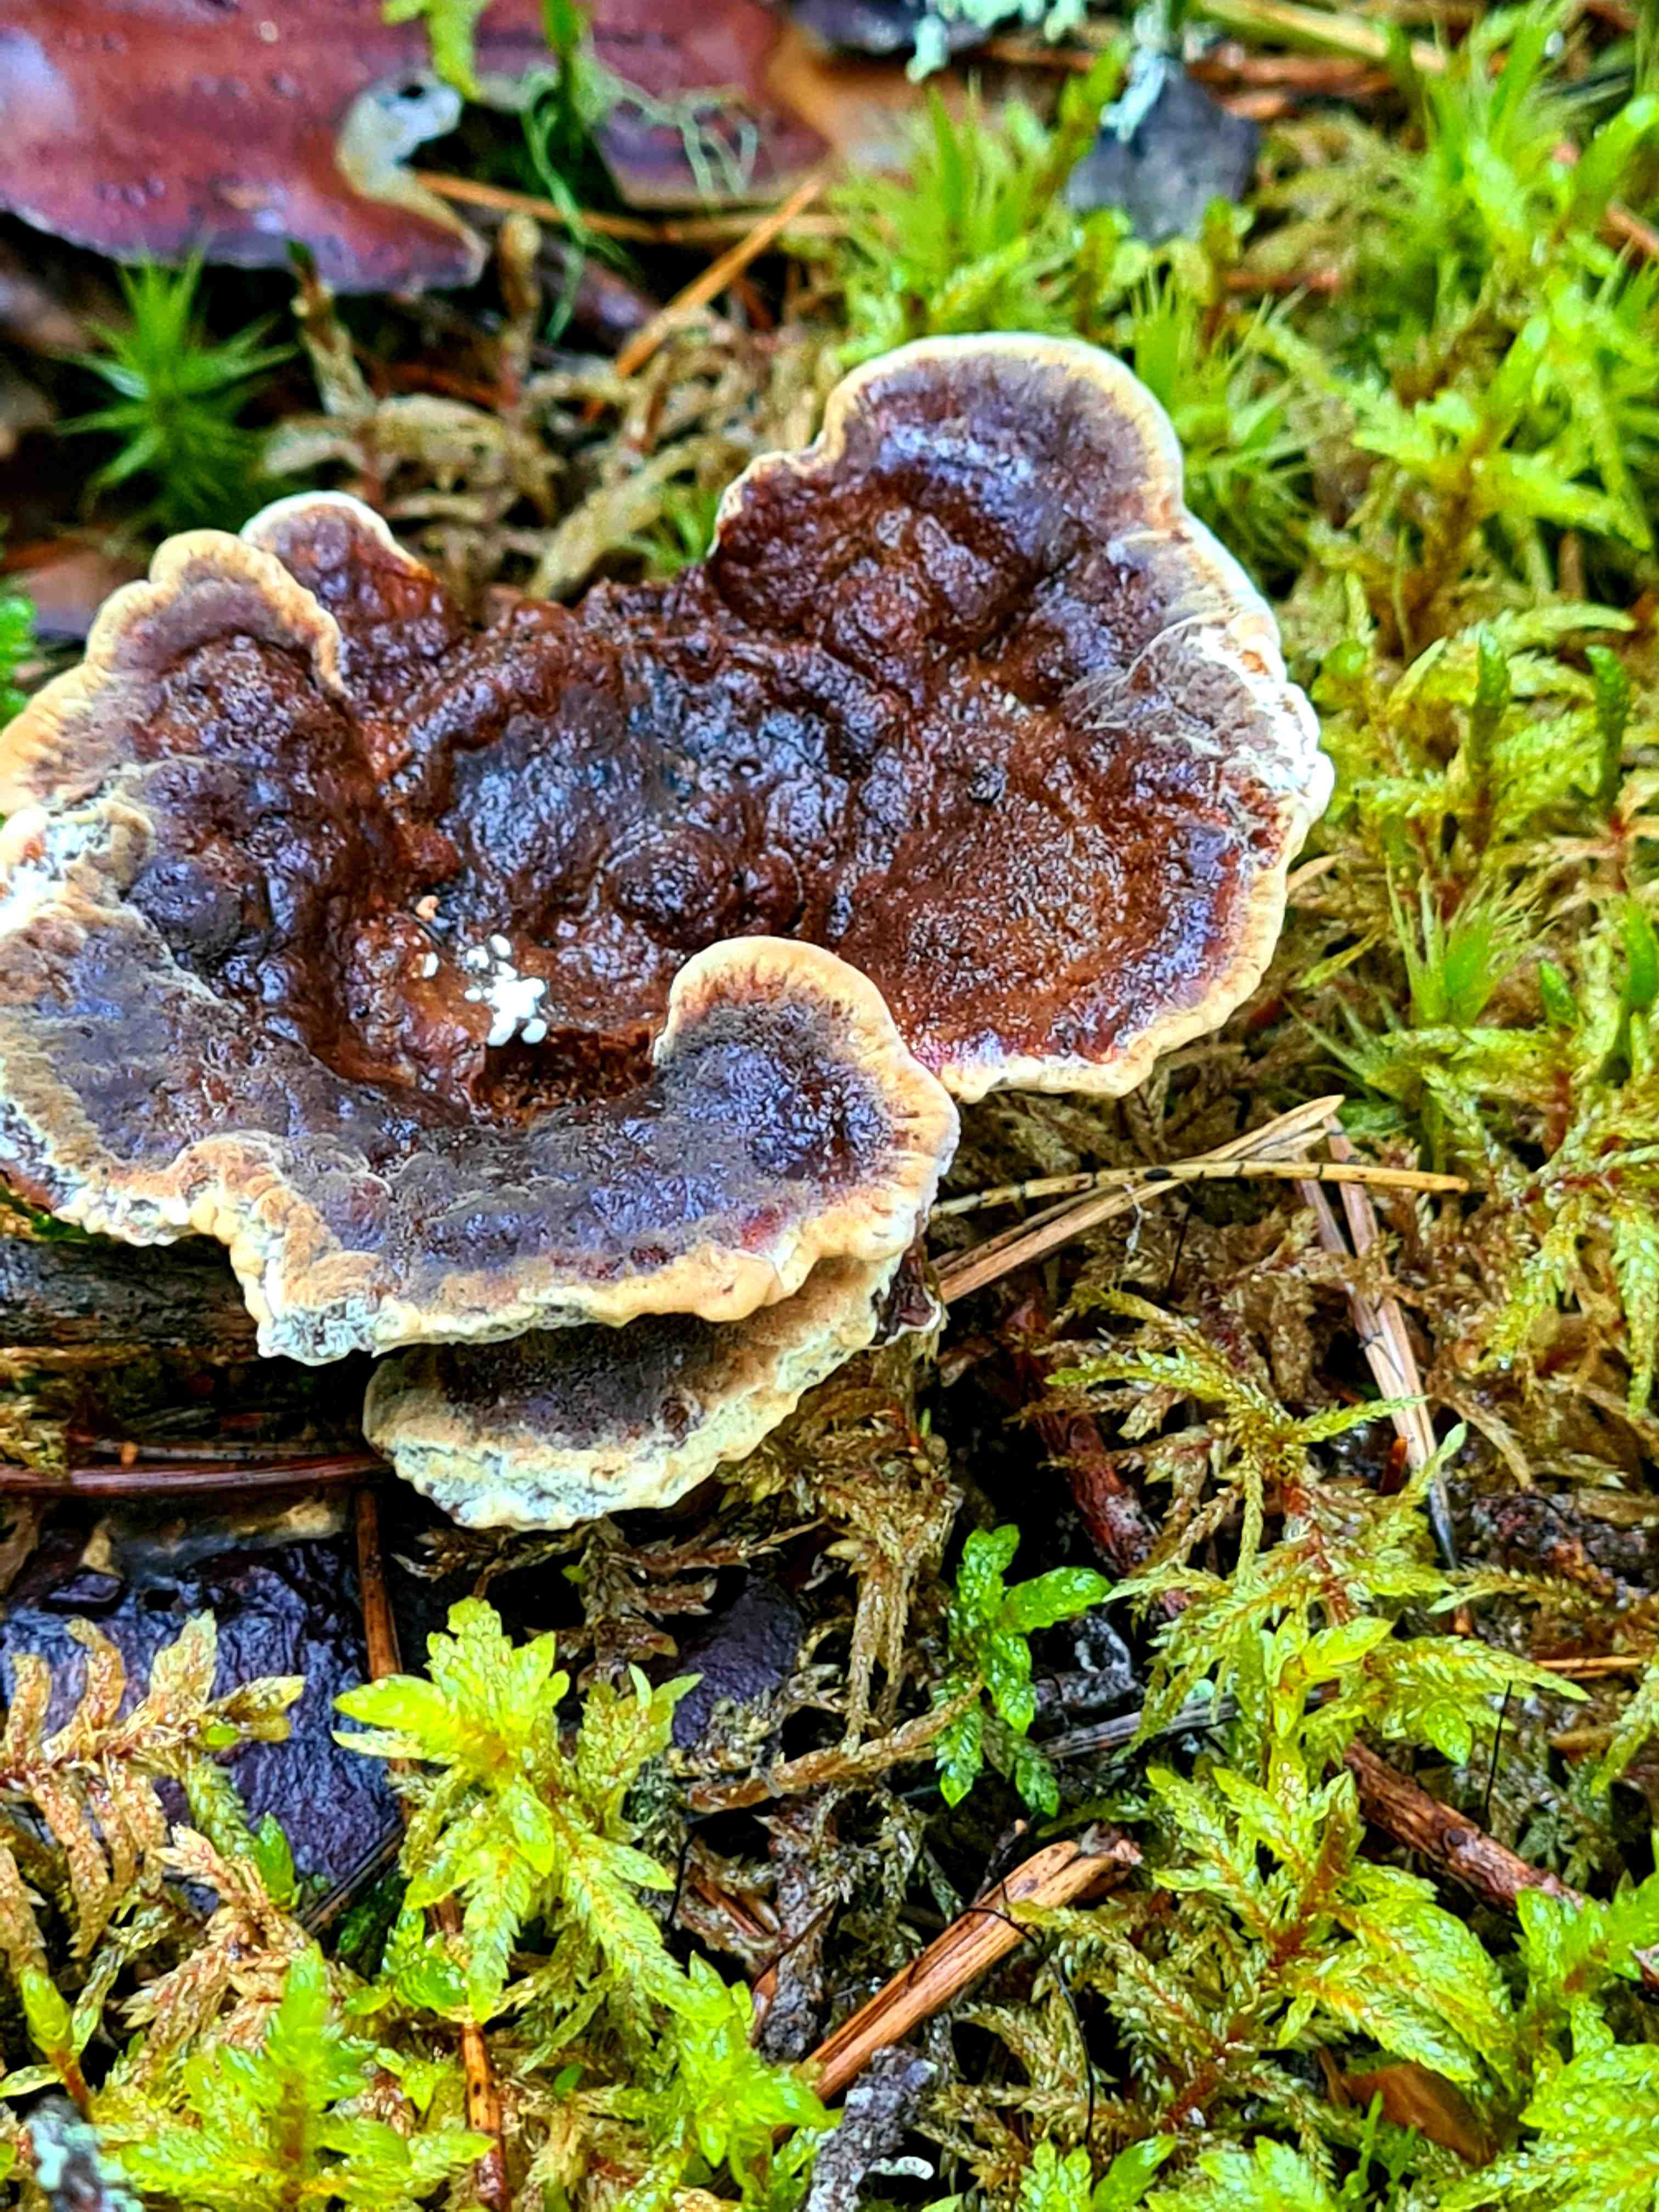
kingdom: Fungi
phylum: Basidiomycota
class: Agaricomycetes
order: Polyporales
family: Laetiporaceae
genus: Phaeolus
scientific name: Phaeolus schweinitzii
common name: brunporesvamp
